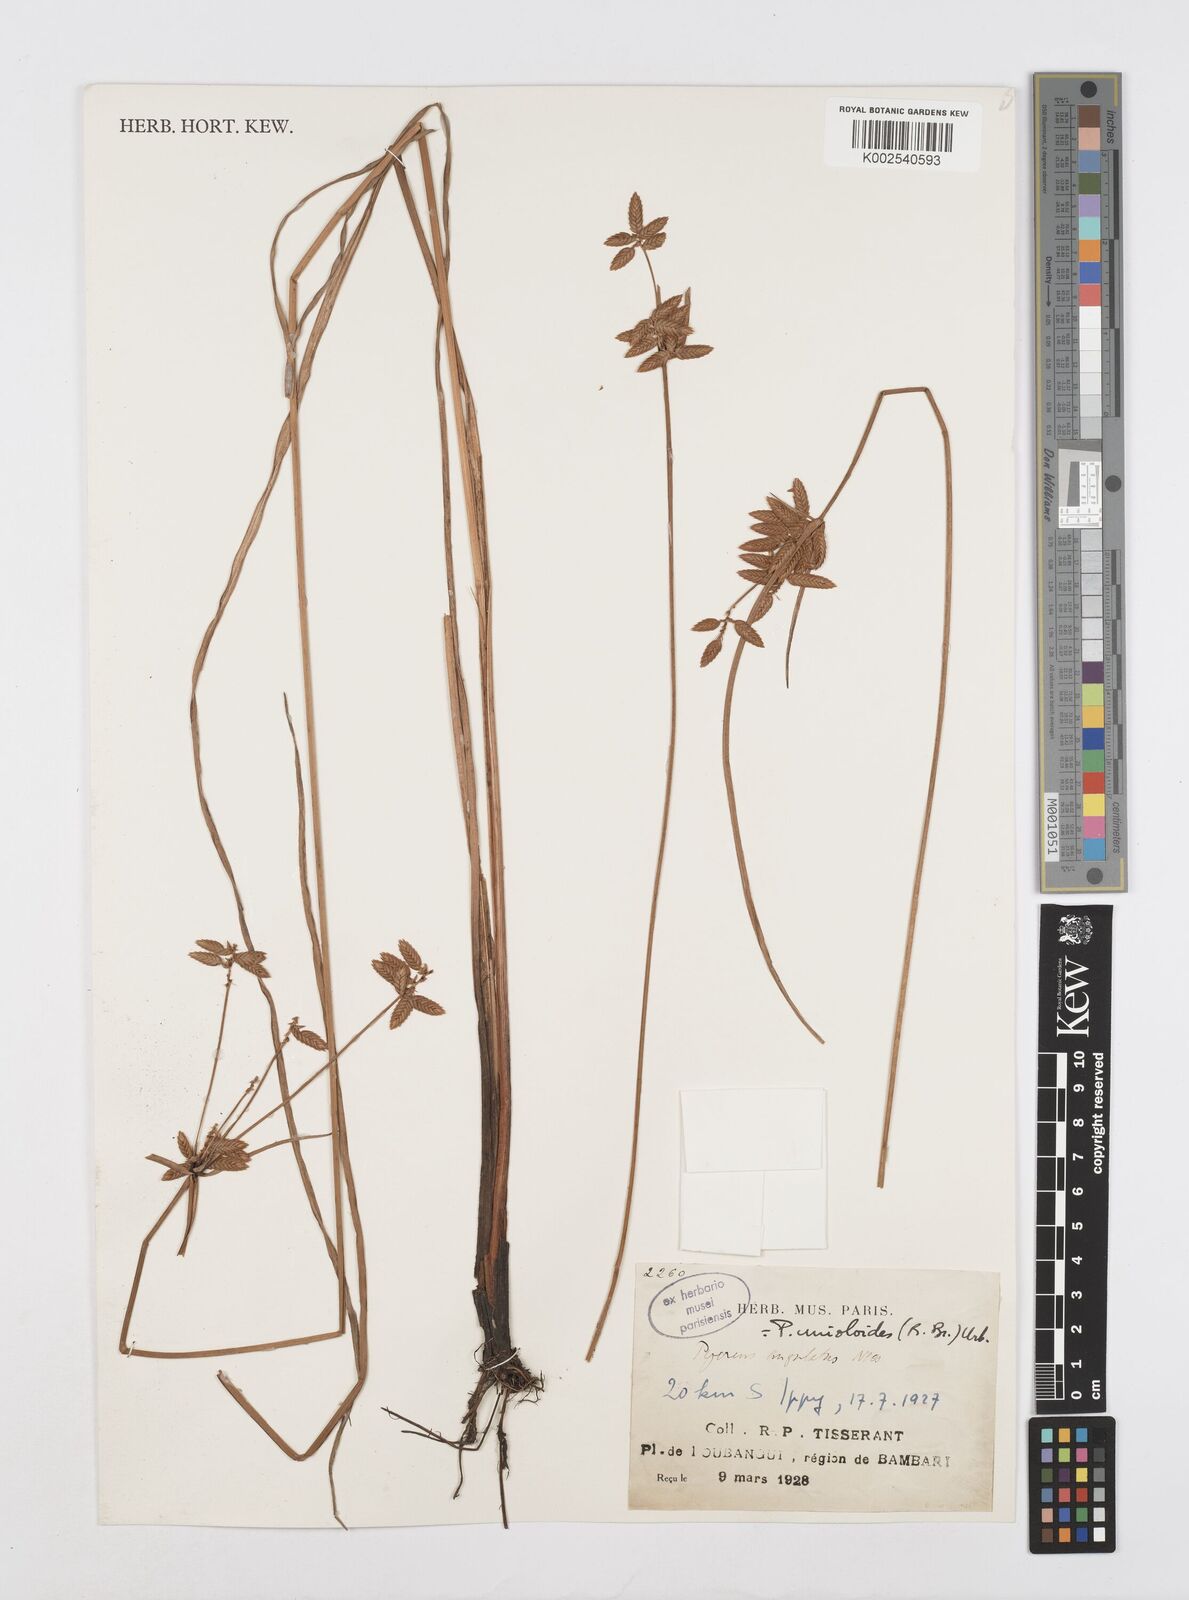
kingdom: Plantae
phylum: Tracheophyta
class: Liliopsida
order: Poales
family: Cyperaceae
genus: Cyperus
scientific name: Cyperus unioloides
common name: Uniola flatsedge
